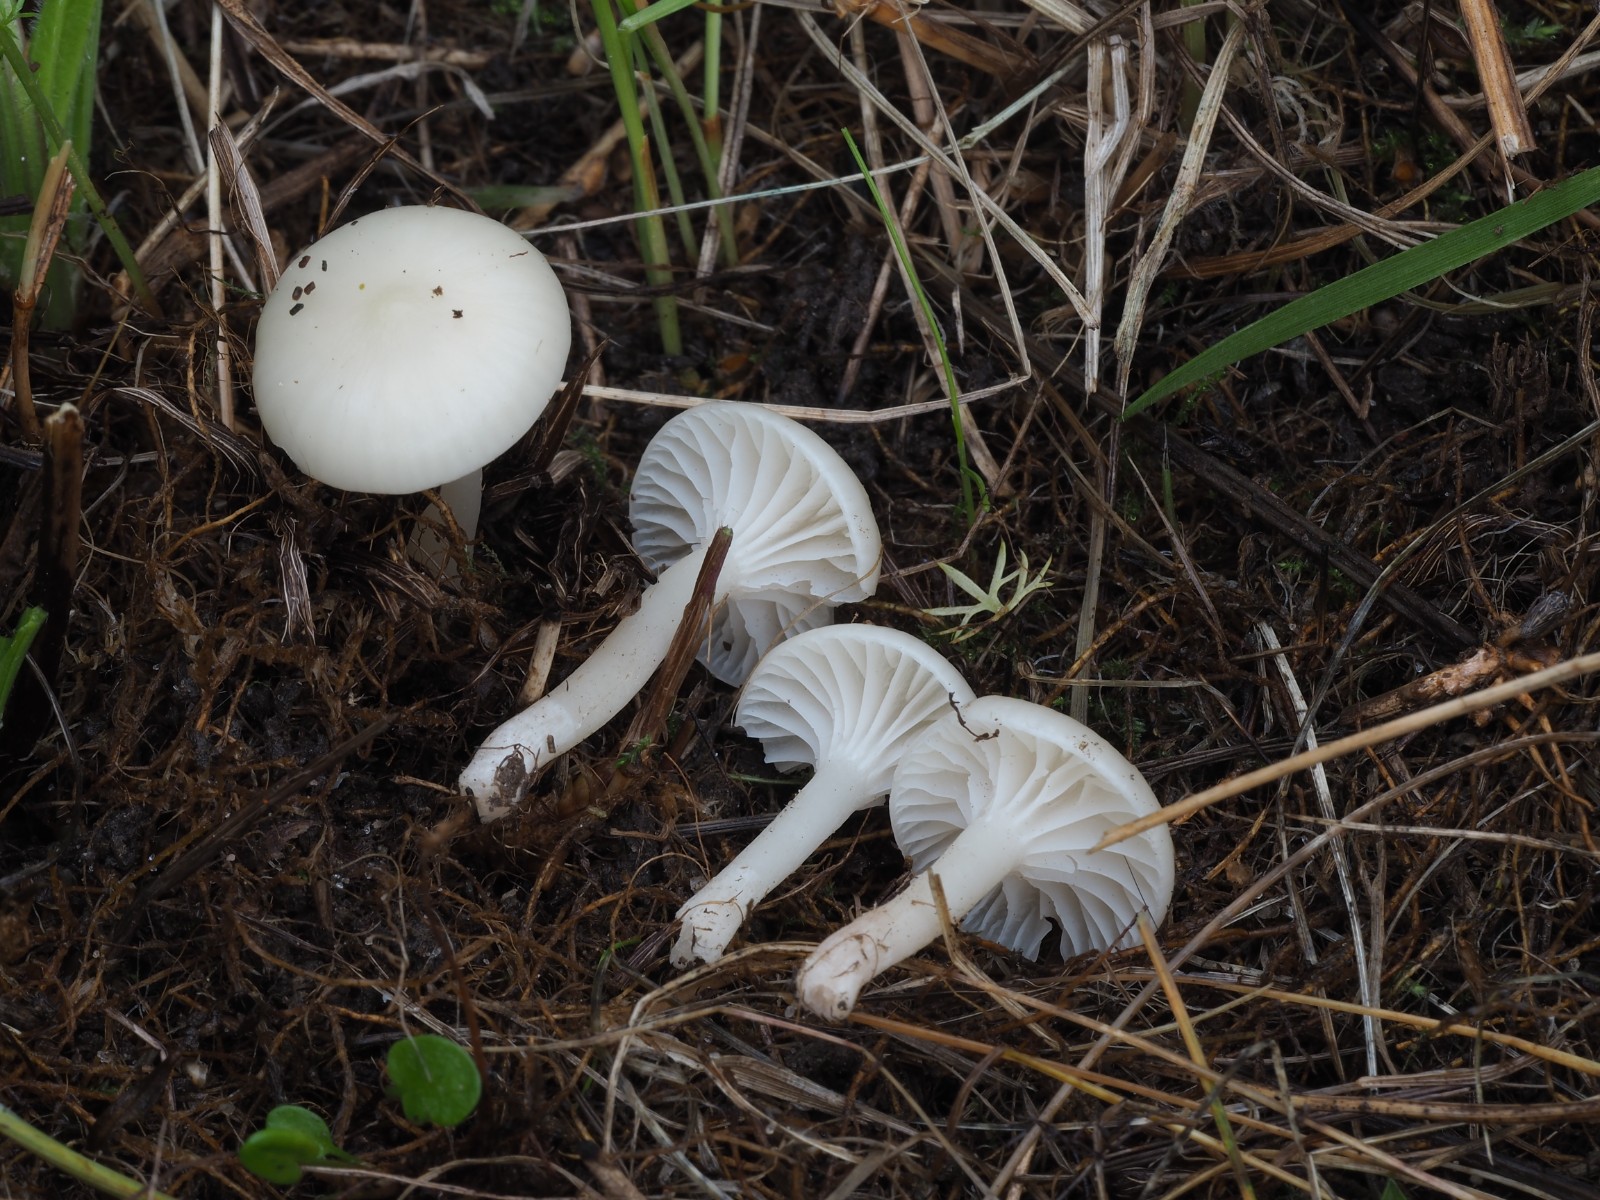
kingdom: Fungi
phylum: Basidiomycota
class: Agaricomycetes
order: Agaricales
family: Hygrophoraceae
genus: Cuphophyllus
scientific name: Cuphophyllus virgineus
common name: snehvid vokshat
